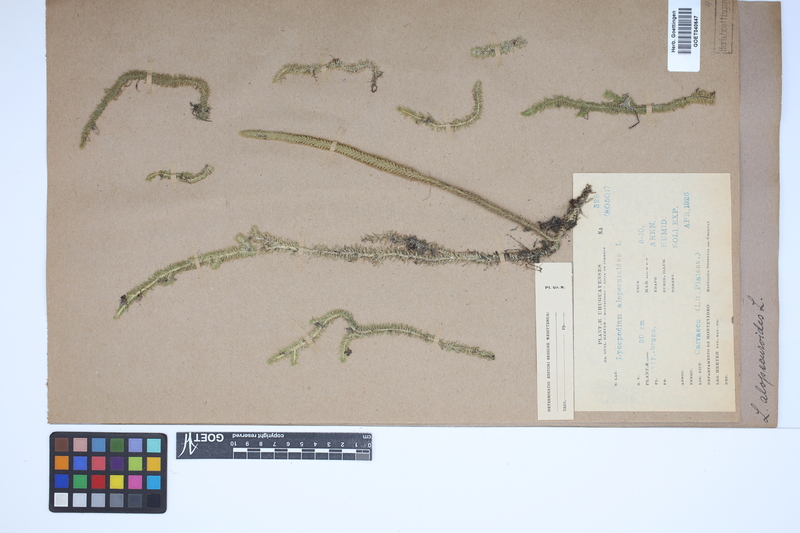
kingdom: Plantae
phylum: Tracheophyta
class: Lycopodiopsida
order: Lycopodiales
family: Lycopodiaceae
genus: Lycopodiella
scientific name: Lycopodiella alopecuroides
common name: Foxtail clubmoss
